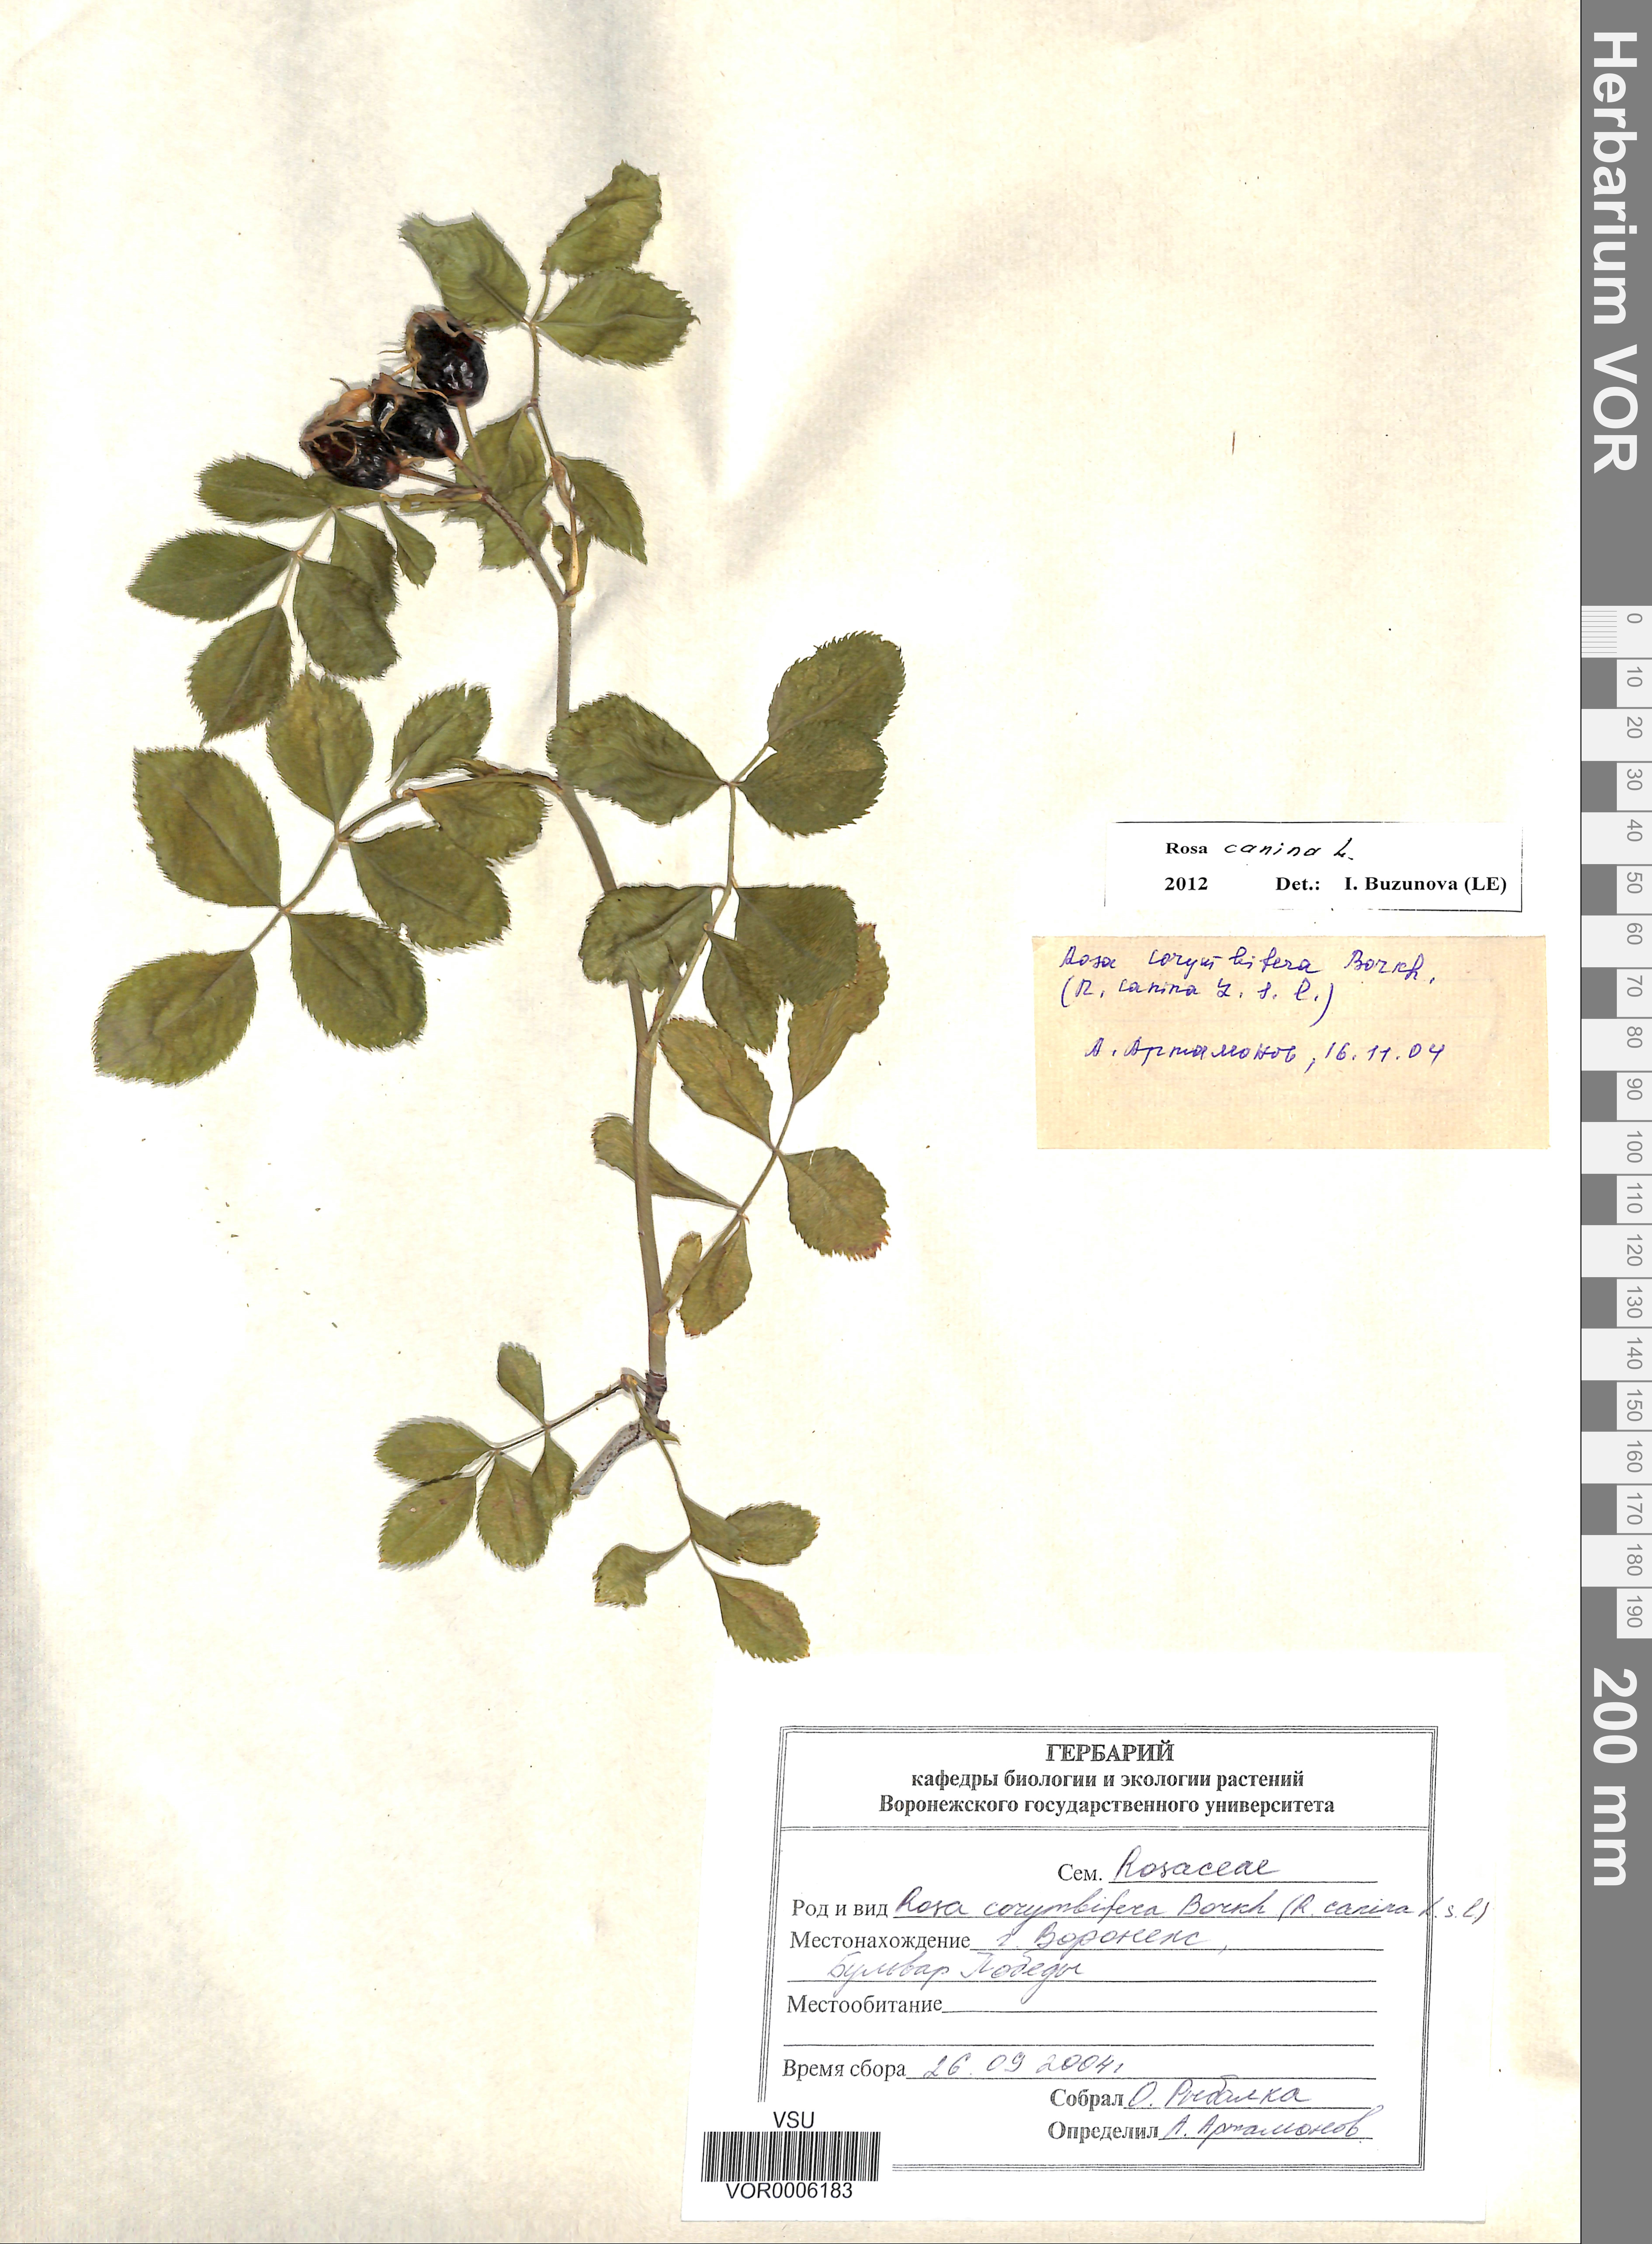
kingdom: Plantae
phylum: Tracheophyta
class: Magnoliopsida
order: Rosales
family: Rosaceae
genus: Rosa
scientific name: Rosa canina
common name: Dog rose
